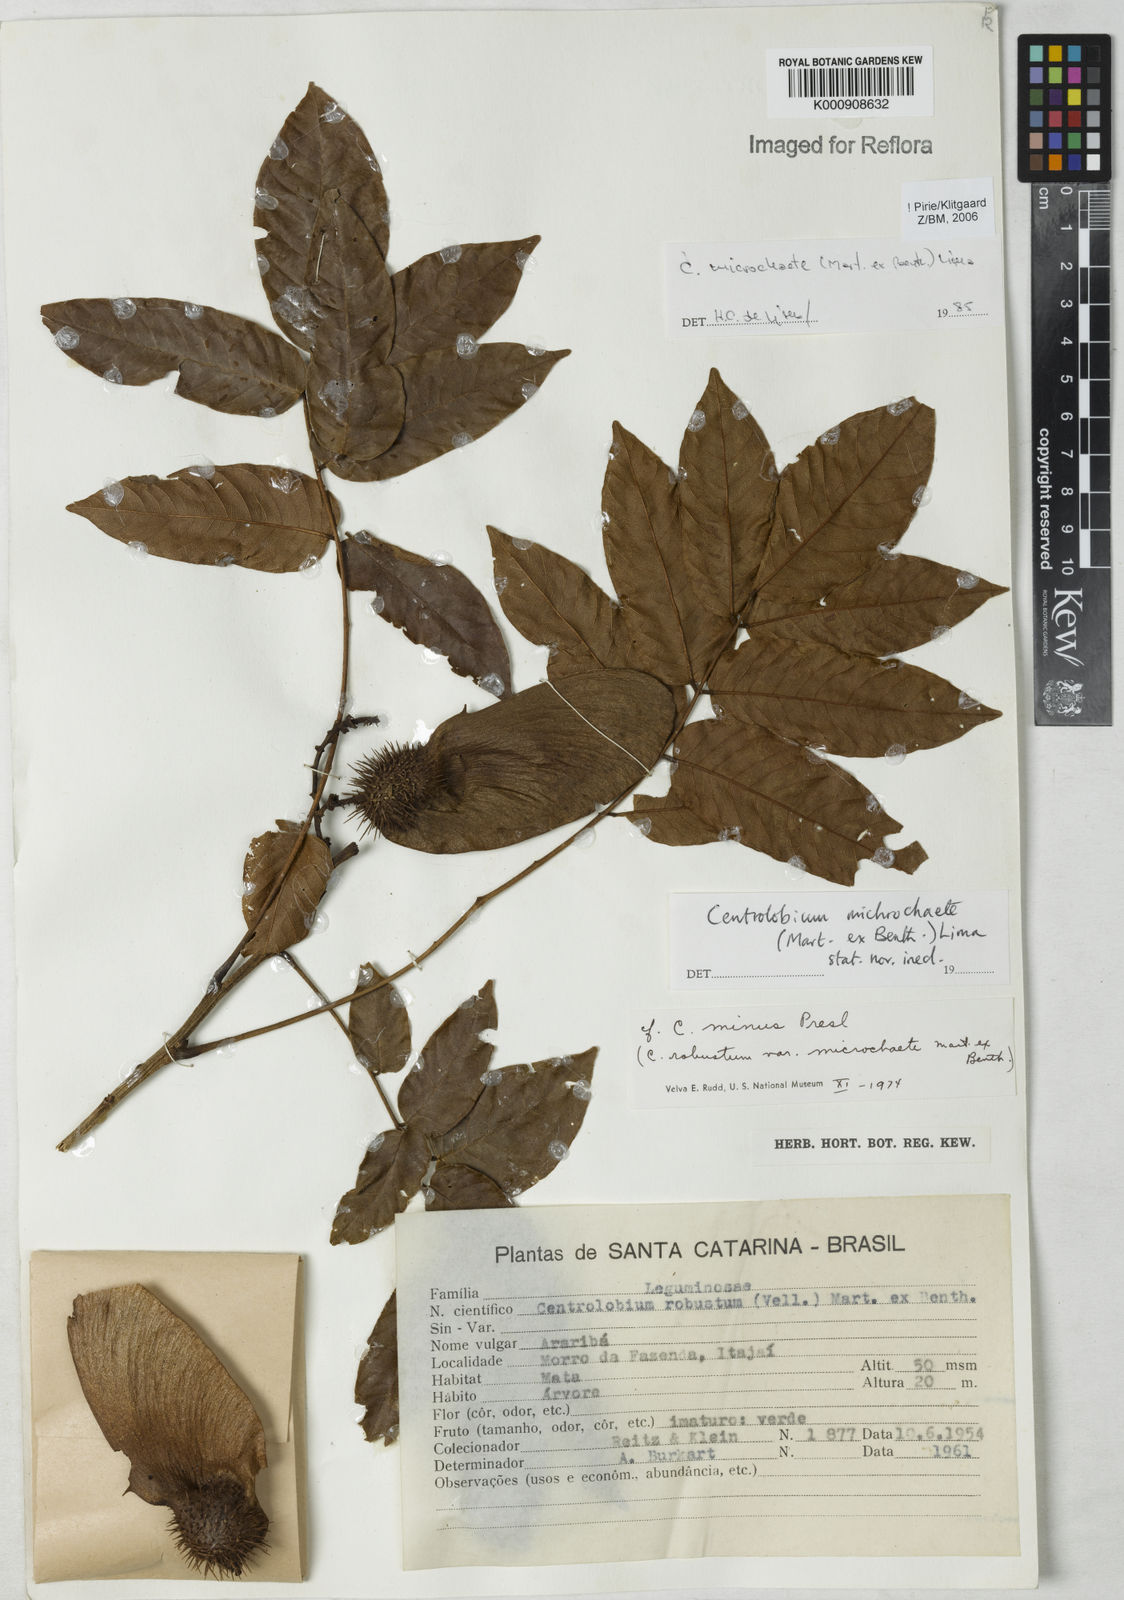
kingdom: Plantae
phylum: Tracheophyta
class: Magnoliopsida
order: Fabales
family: Fabaceae
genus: Centrolobium
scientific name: Centrolobium microchaete
